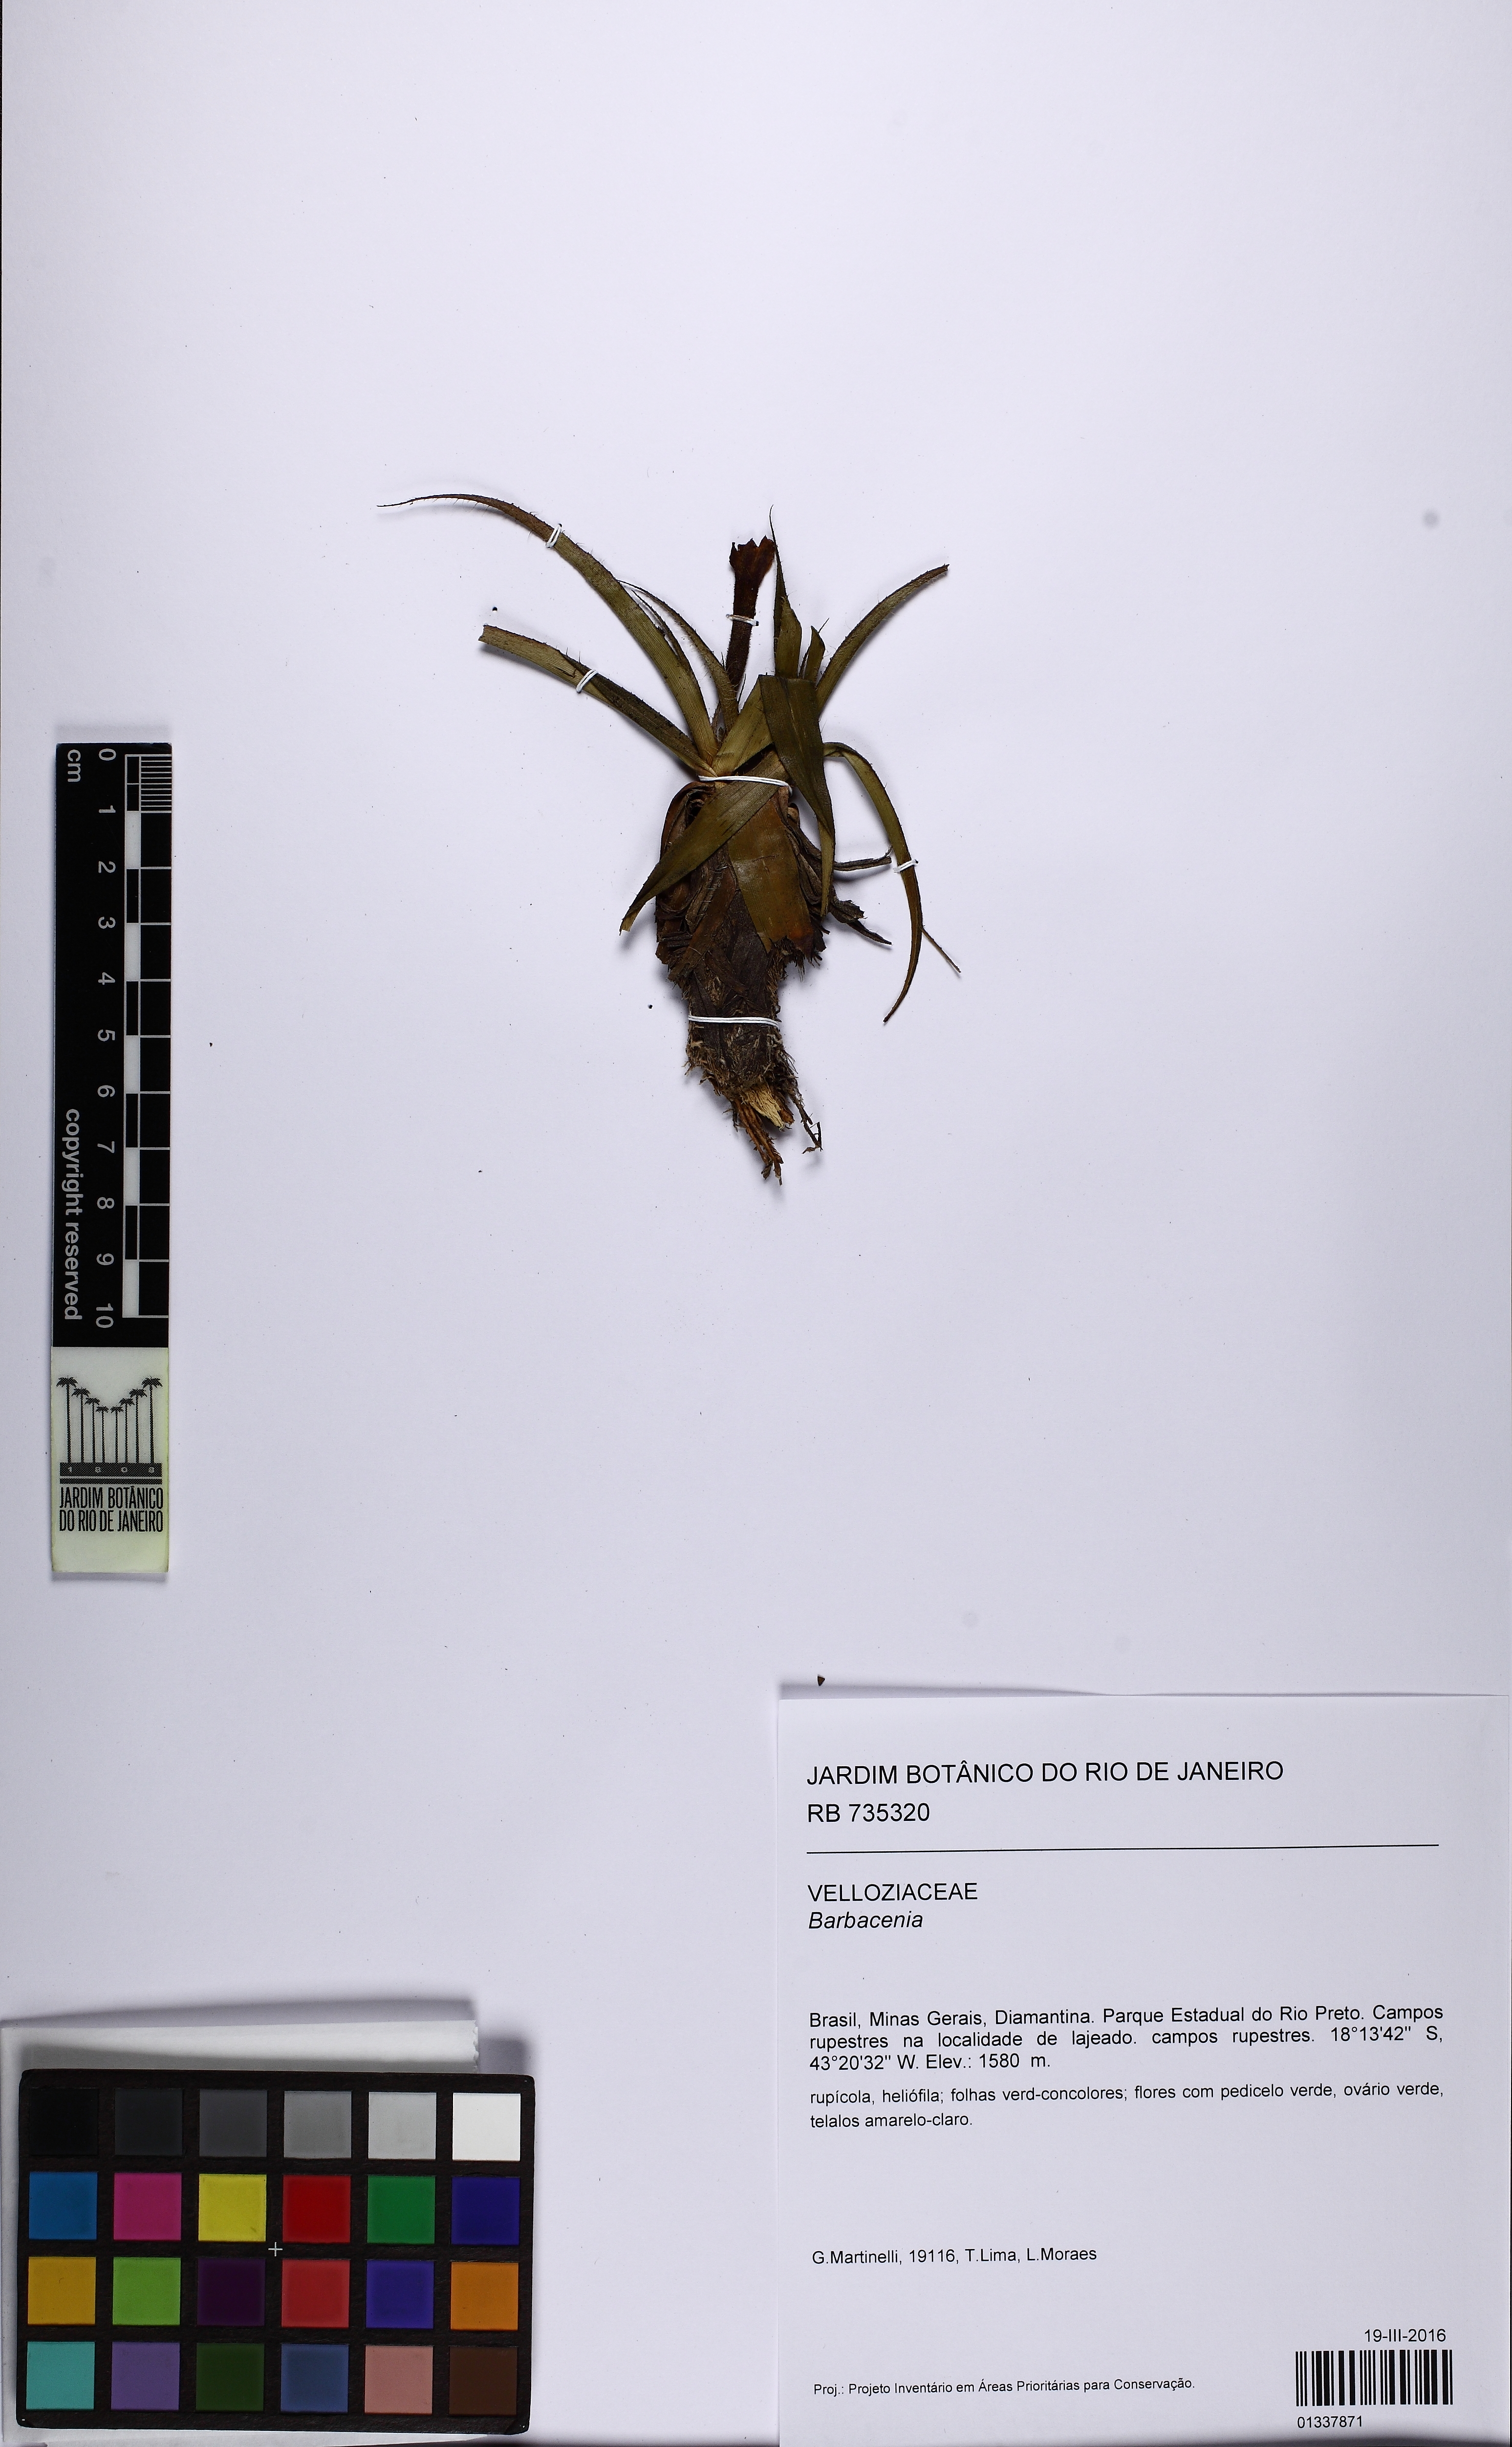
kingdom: Plantae
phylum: Tracheophyta
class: Liliopsida
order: Pandanales
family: Velloziaceae
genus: Barbacenia
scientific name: Barbacenia
